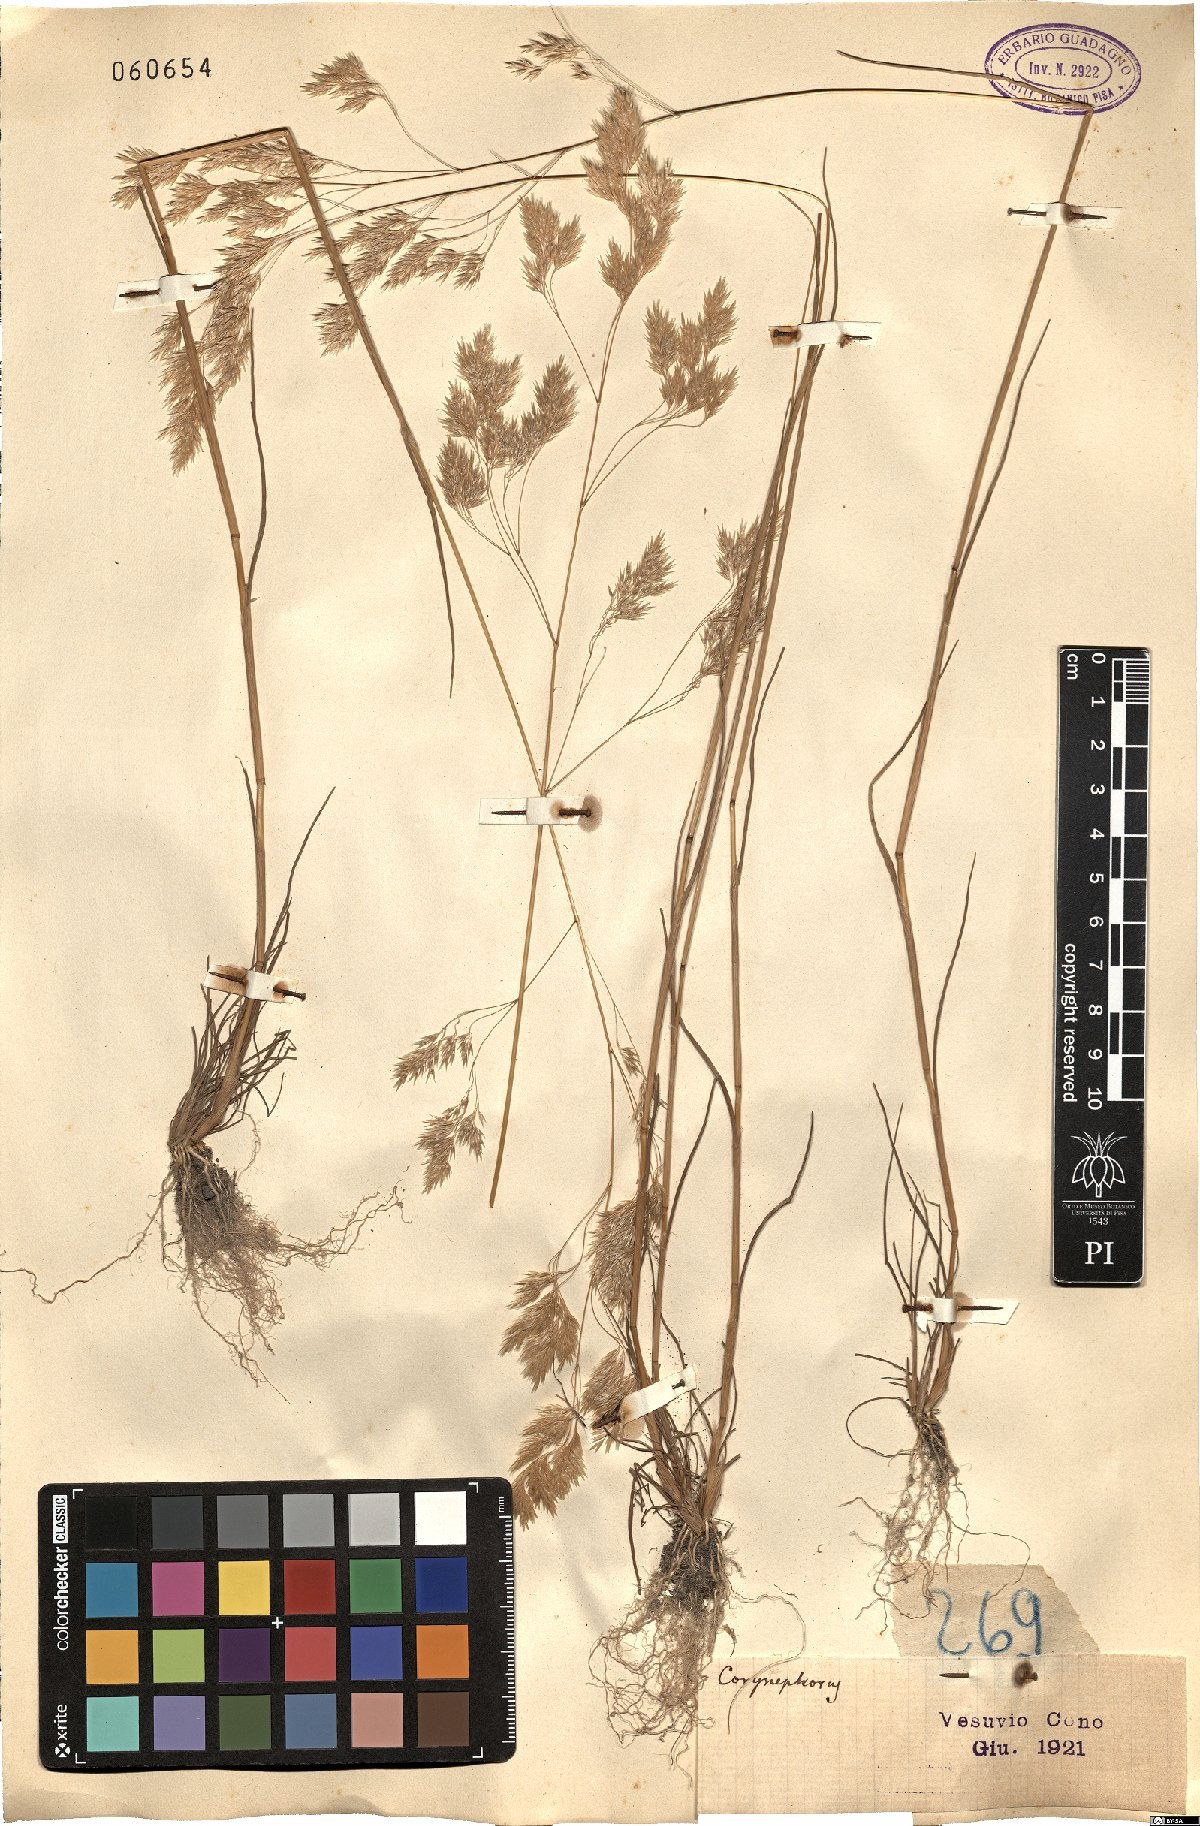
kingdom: Plantae
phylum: Tracheophyta
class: Liliopsida
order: Poales
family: Poaceae
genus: Corynephorus
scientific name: Corynephorus
